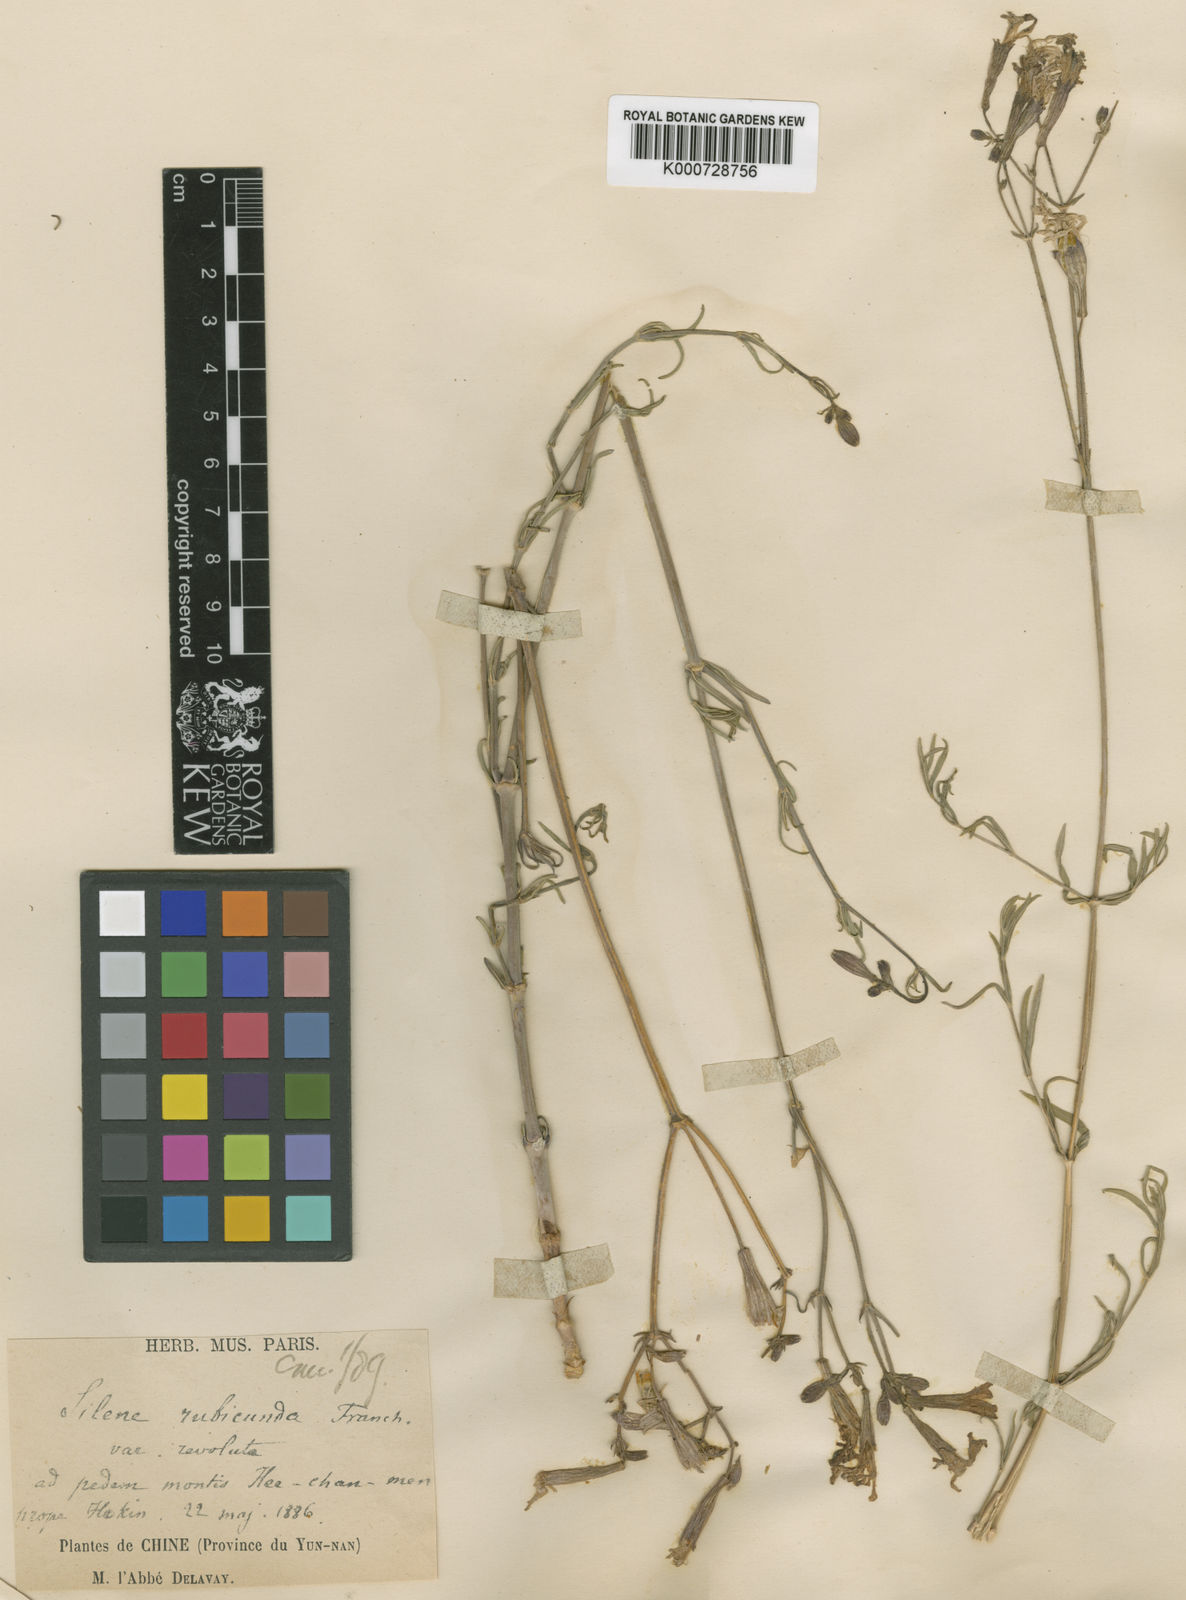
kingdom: Plantae
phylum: Tracheophyta
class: Magnoliopsida
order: Caryophyllales
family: Caryophyllaceae
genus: Silene
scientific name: Silene platyphylla
